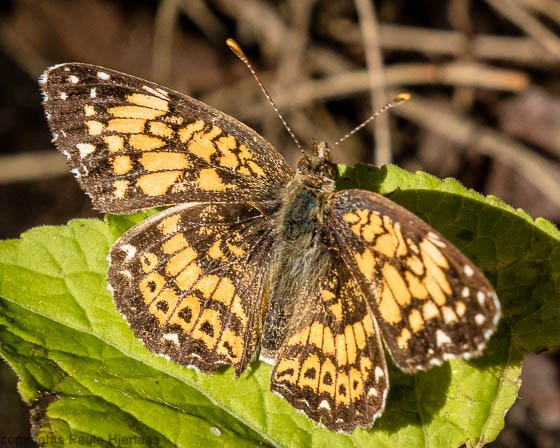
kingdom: Animalia
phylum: Arthropoda
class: Insecta
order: Lepidoptera
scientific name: Lepidoptera
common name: Butterflies
